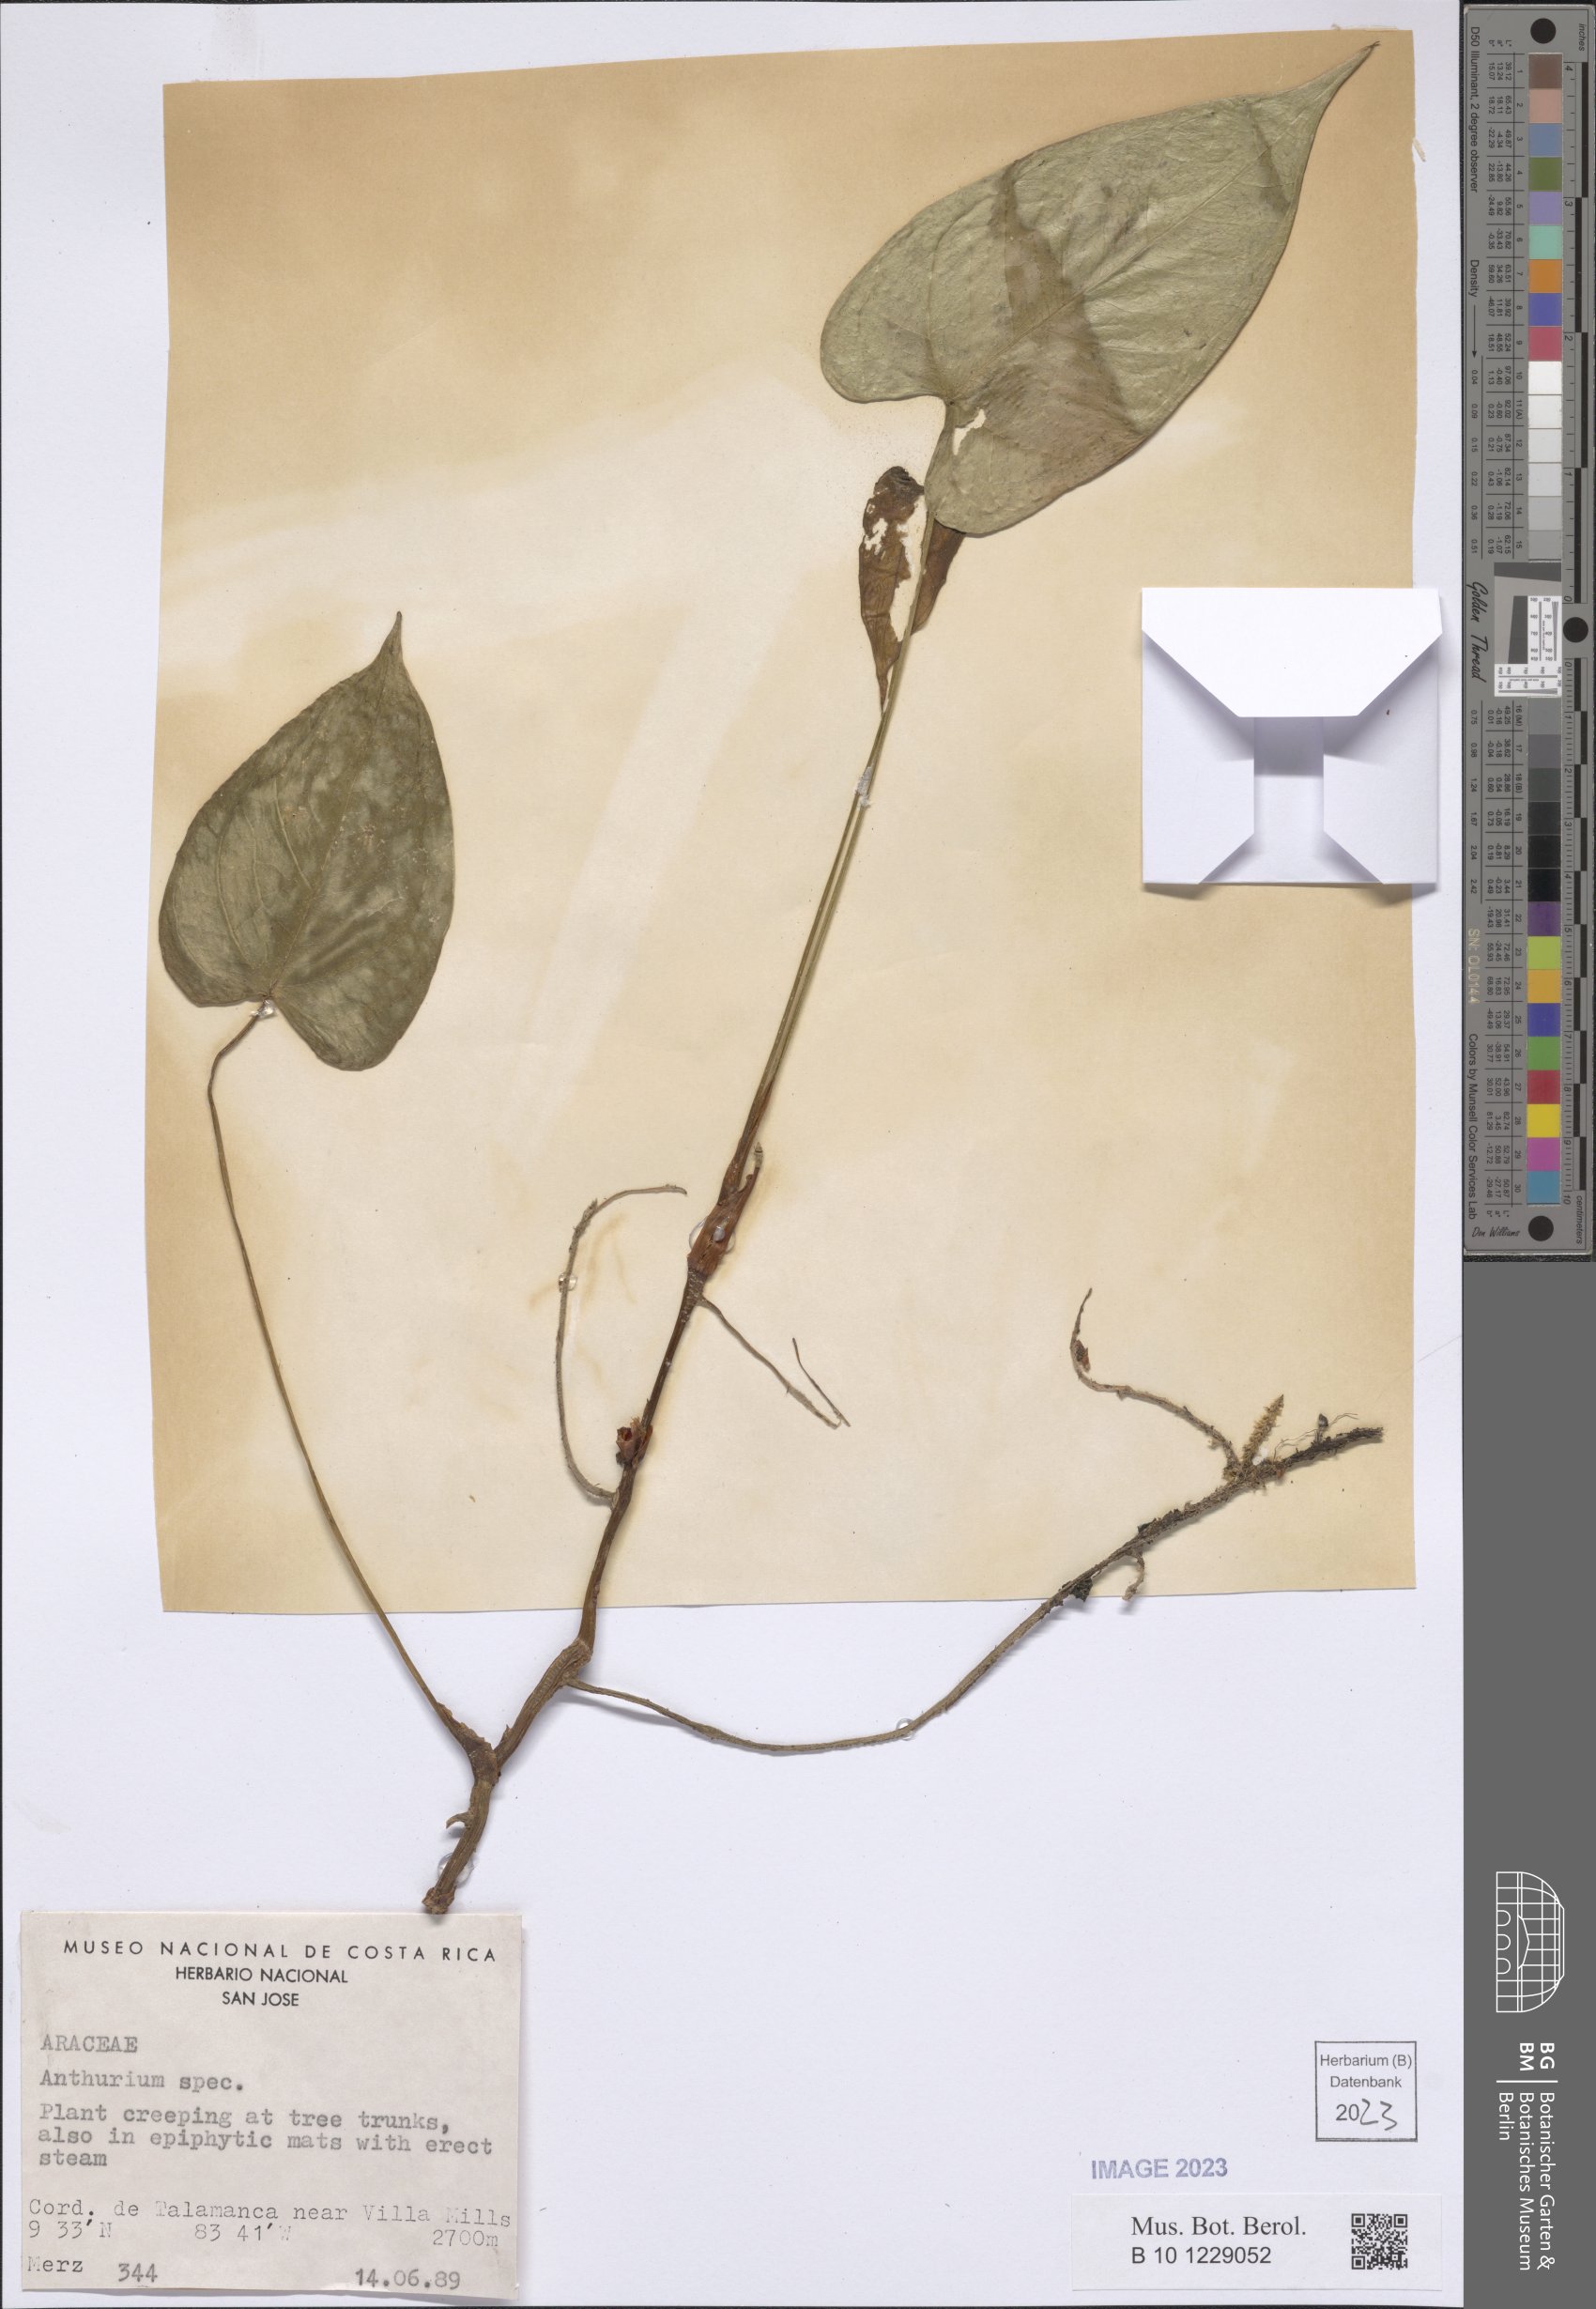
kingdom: Plantae
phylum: Tracheophyta
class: Liliopsida
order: Alismatales
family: Araceae
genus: Anthurium
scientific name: Anthurium
